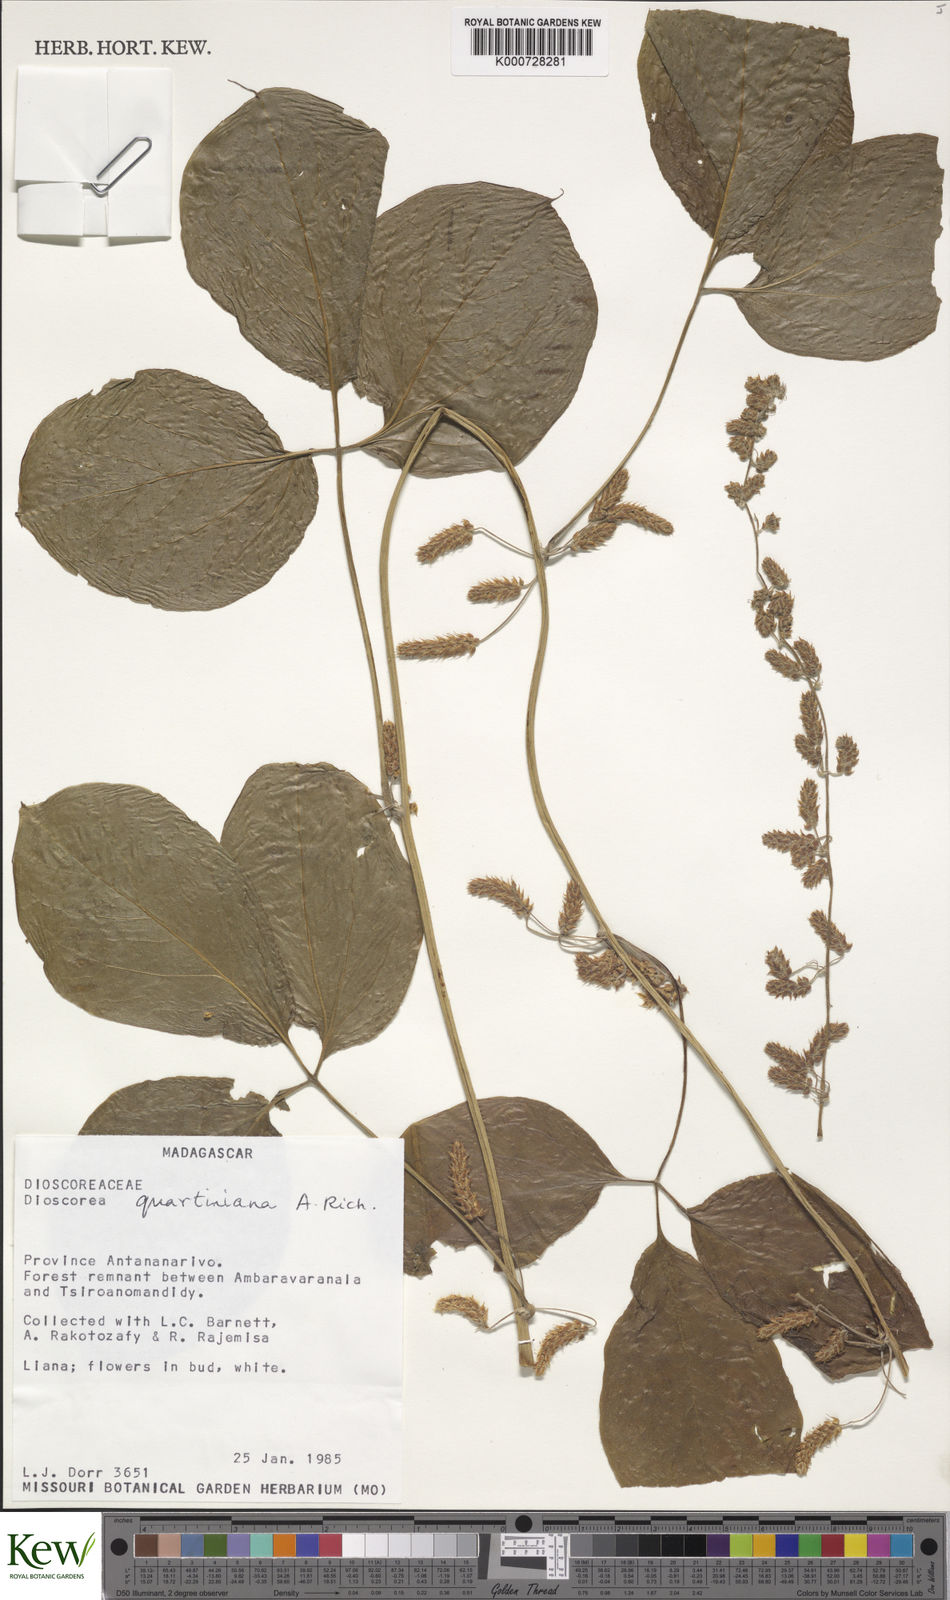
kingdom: Plantae
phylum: Tracheophyta
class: Liliopsida
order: Dioscoreales
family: Dioscoreaceae
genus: Dioscorea
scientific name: Dioscorea quartiniana
